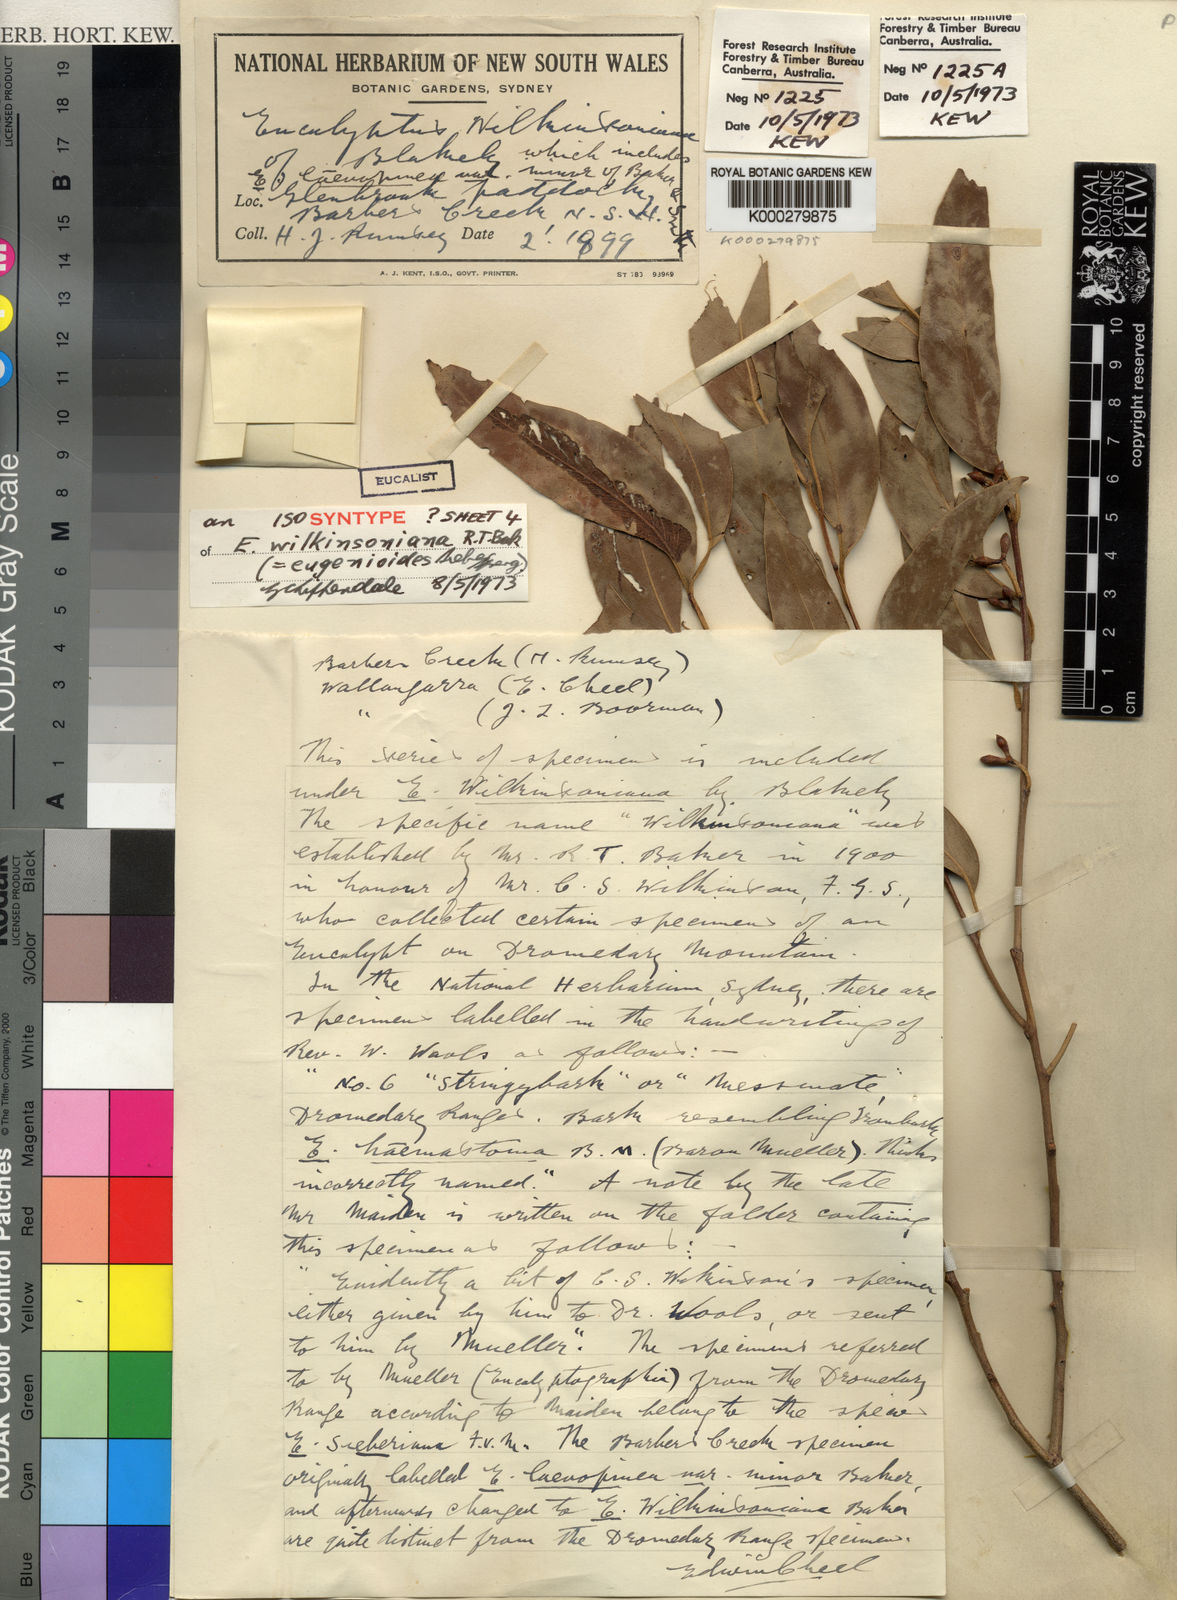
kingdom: Plantae
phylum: Tracheophyta
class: Magnoliopsida
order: Myrtales
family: Myrtaceae
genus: Eucalyptus
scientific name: Eucalyptus eugenioides
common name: Narrow-leaved-stringybark
